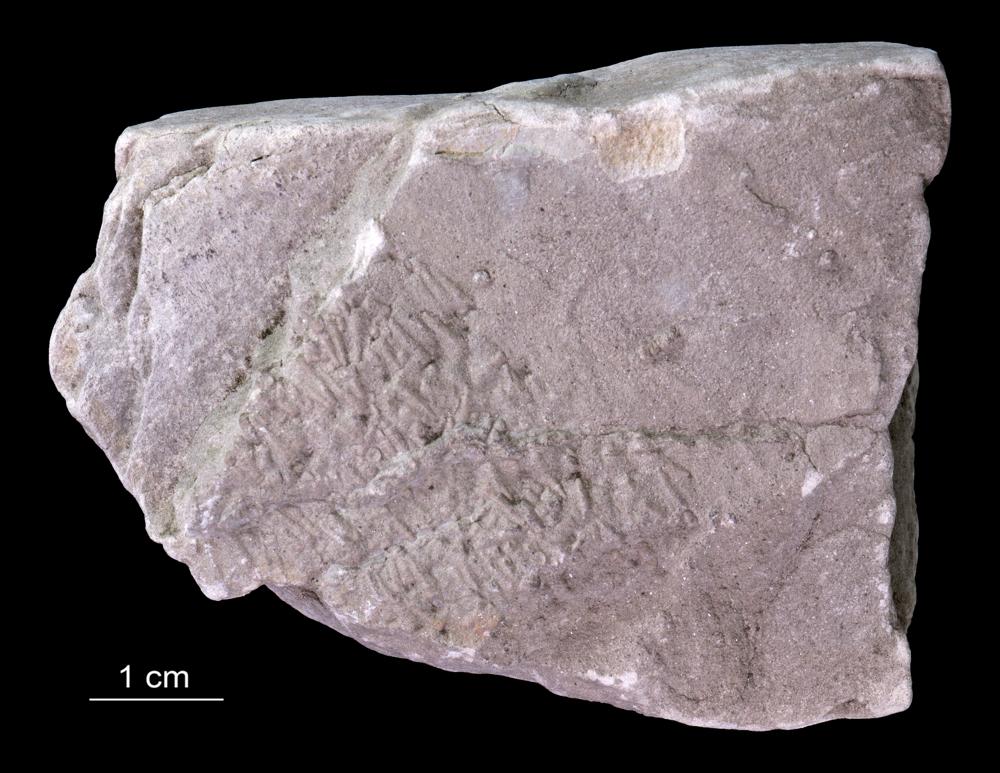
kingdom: Animalia
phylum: Annelida
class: Polychaeta
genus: Volborthella
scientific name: Volborthella tenuis
